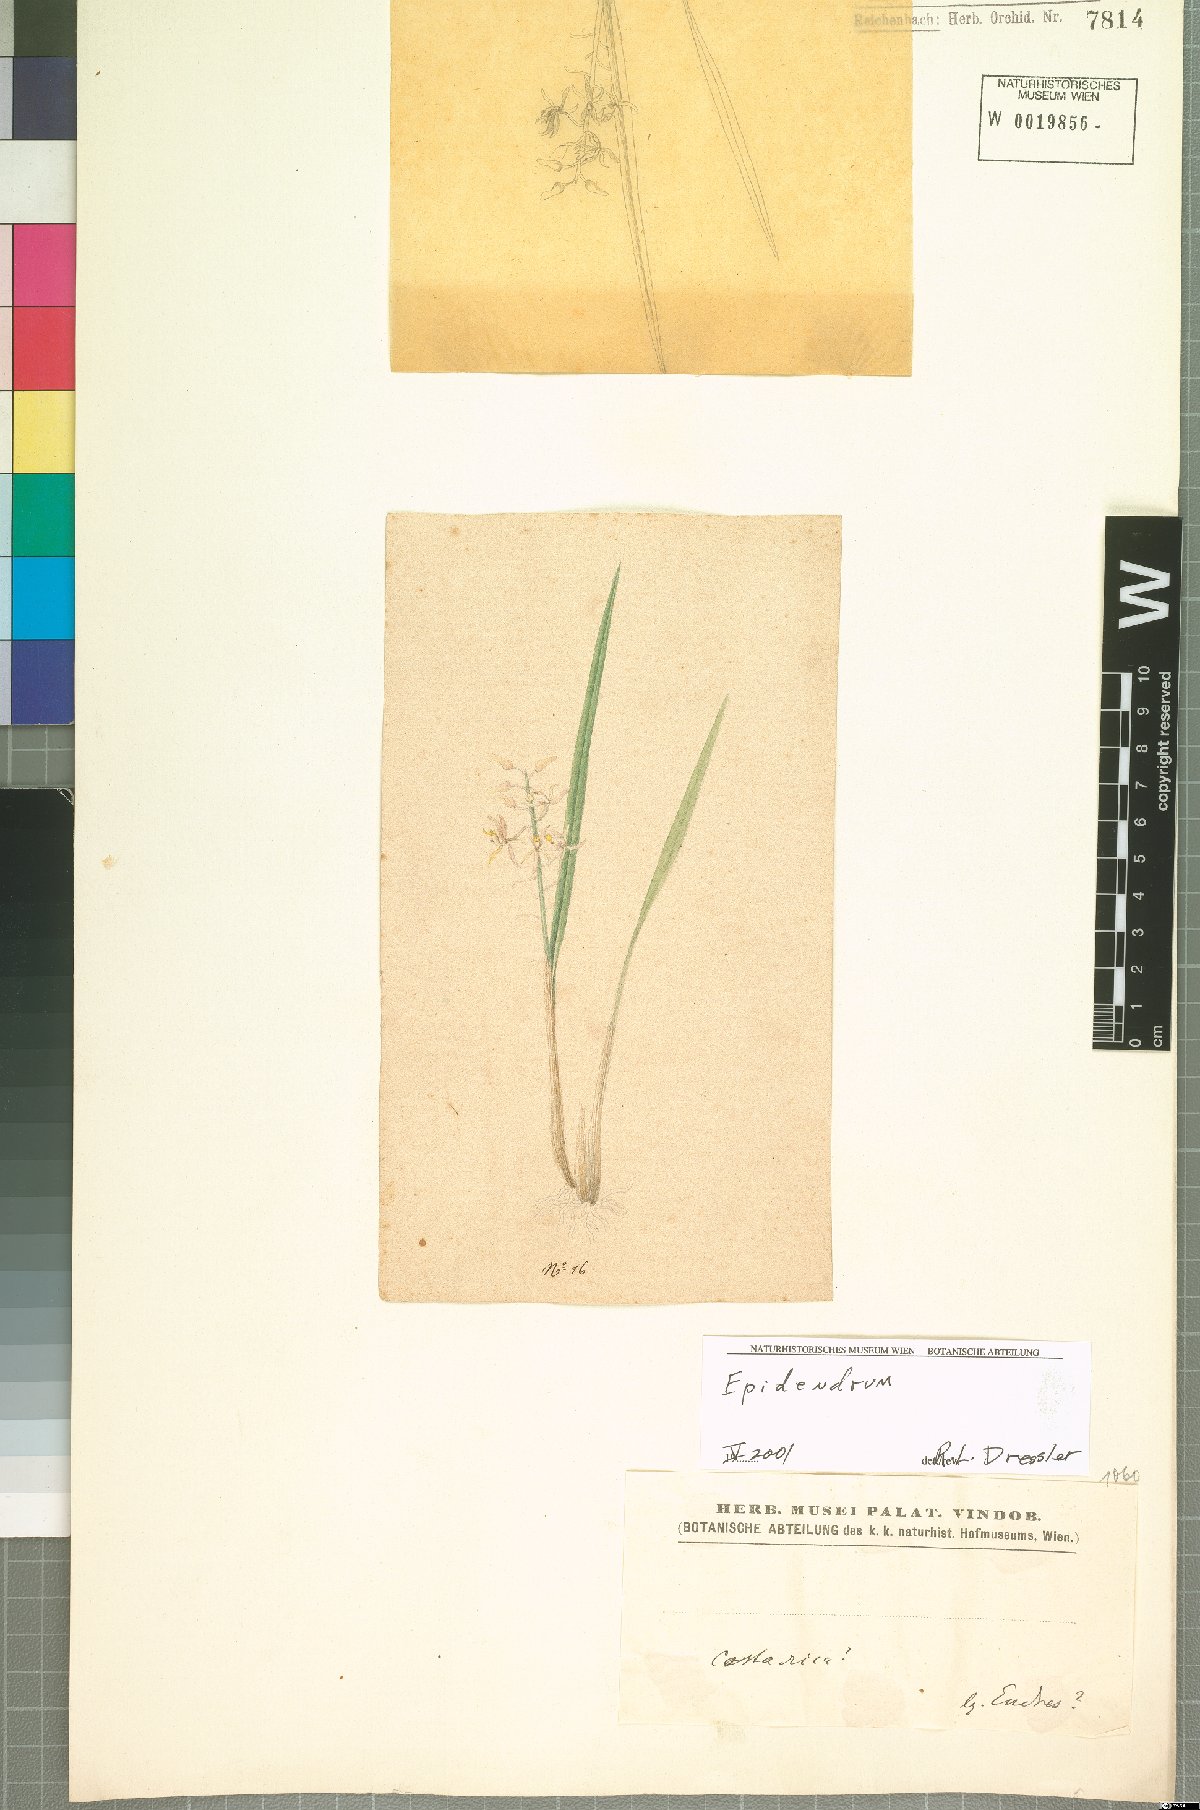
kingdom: Plantae
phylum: Tracheophyta
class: Liliopsida
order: Asparagales
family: Orchidaceae
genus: Oncidium
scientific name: Oncidium
